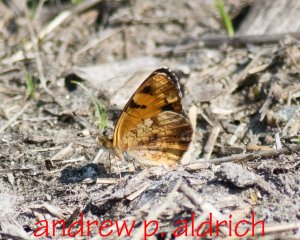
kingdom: Animalia
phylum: Arthropoda
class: Insecta
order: Lepidoptera
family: Nymphalidae
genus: Phyciodes
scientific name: Phyciodes
